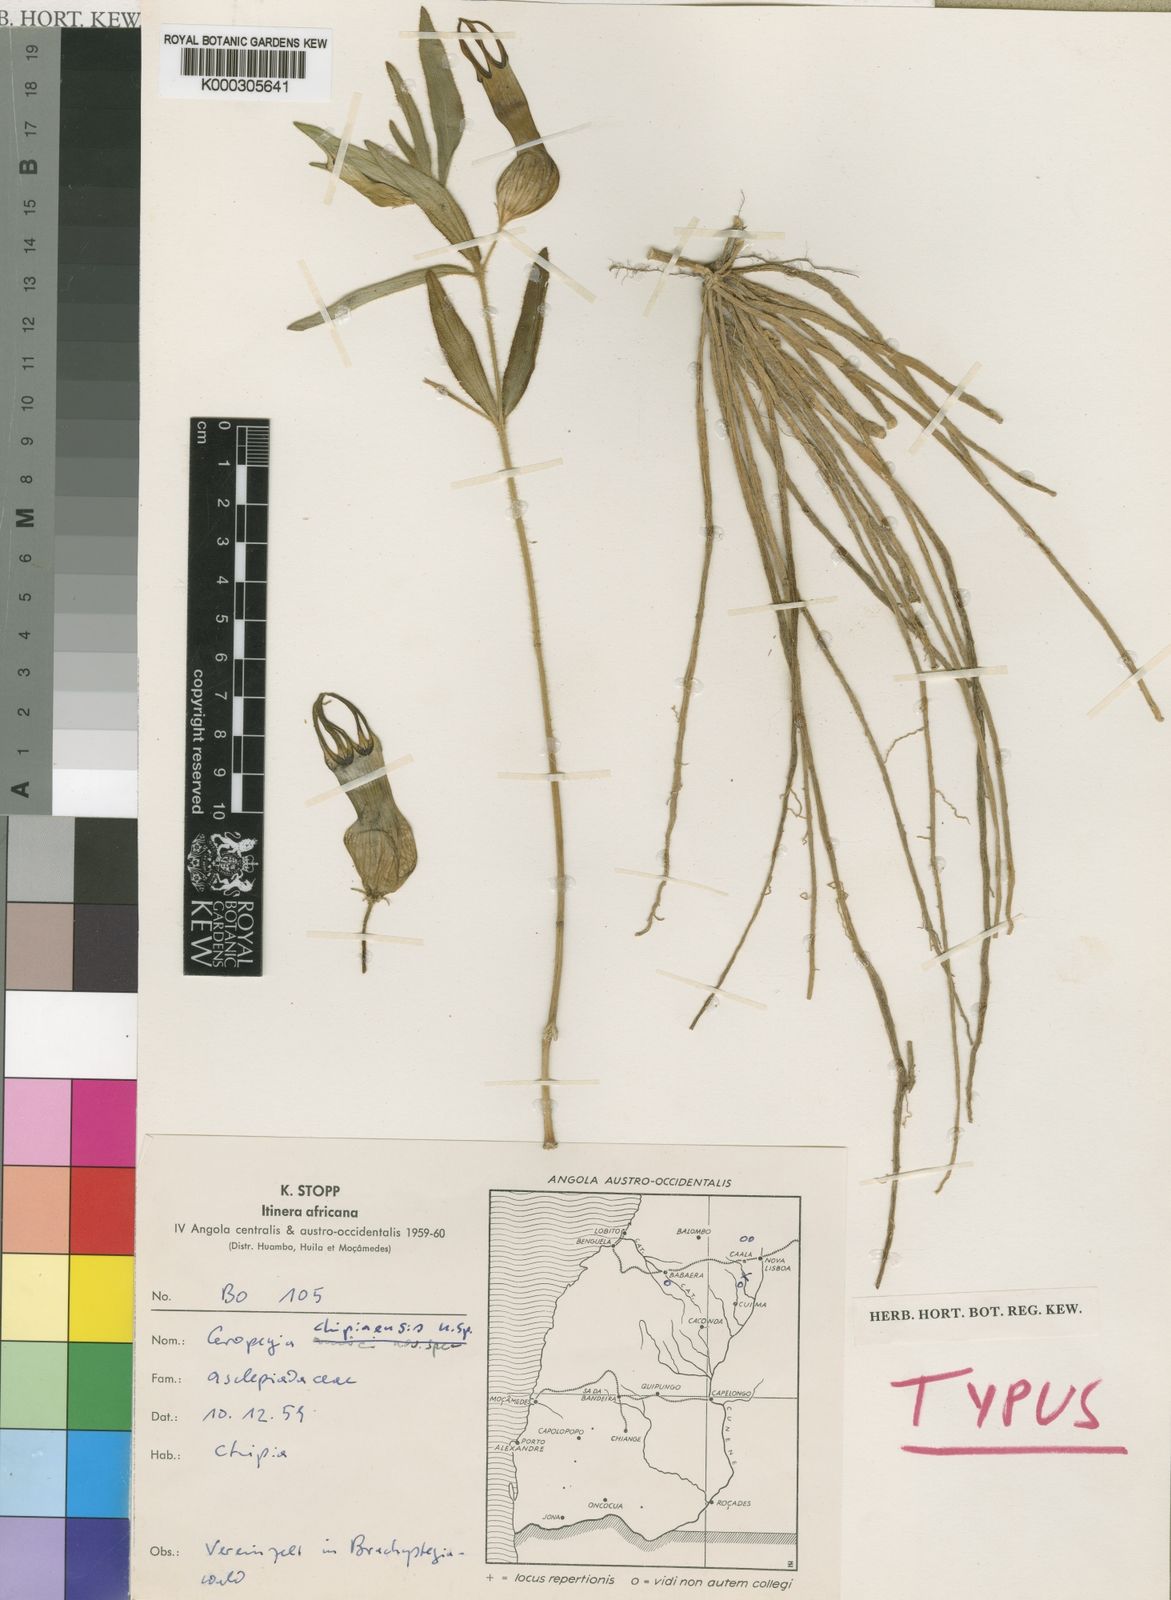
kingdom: Plantae
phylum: Tracheophyta
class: Magnoliopsida
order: Gentianales
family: Apocynaceae
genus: Ceropegia
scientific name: Ceropegia umbraticola
